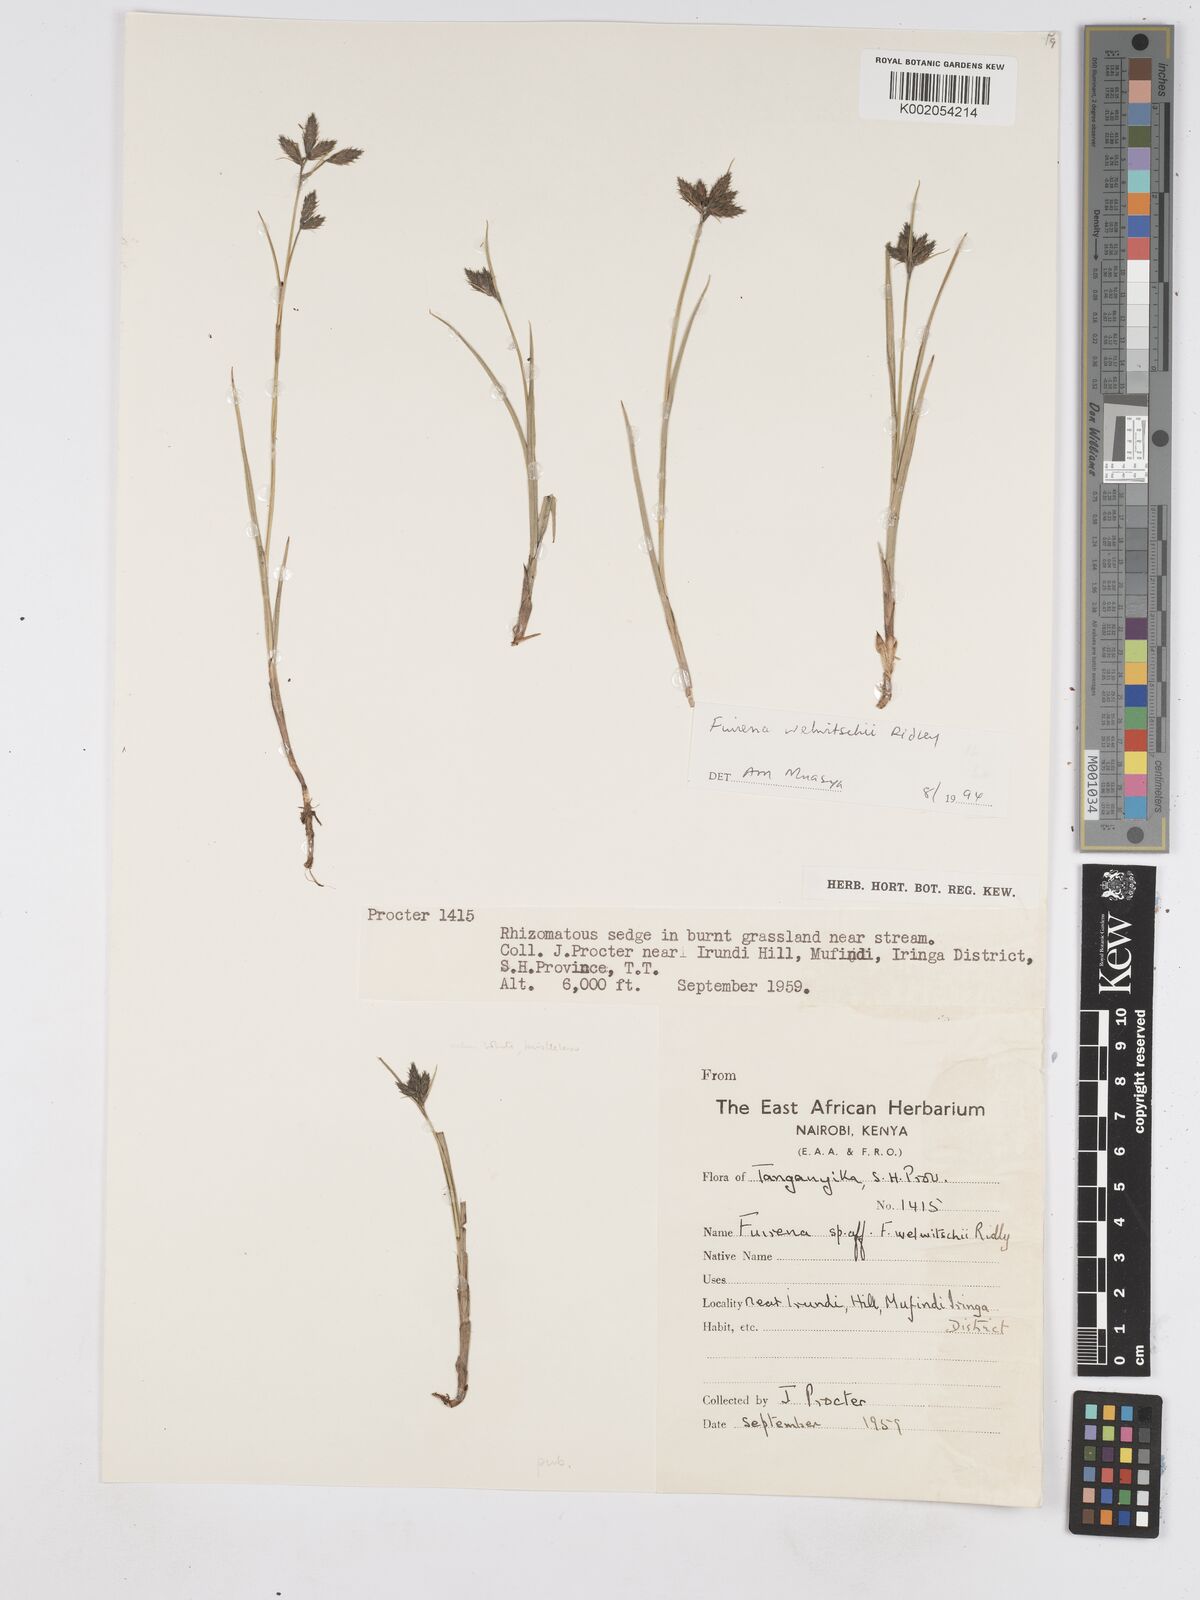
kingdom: Plantae
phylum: Tracheophyta
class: Liliopsida
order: Poales
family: Cyperaceae
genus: Fuirena
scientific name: Fuirena welwitschii
